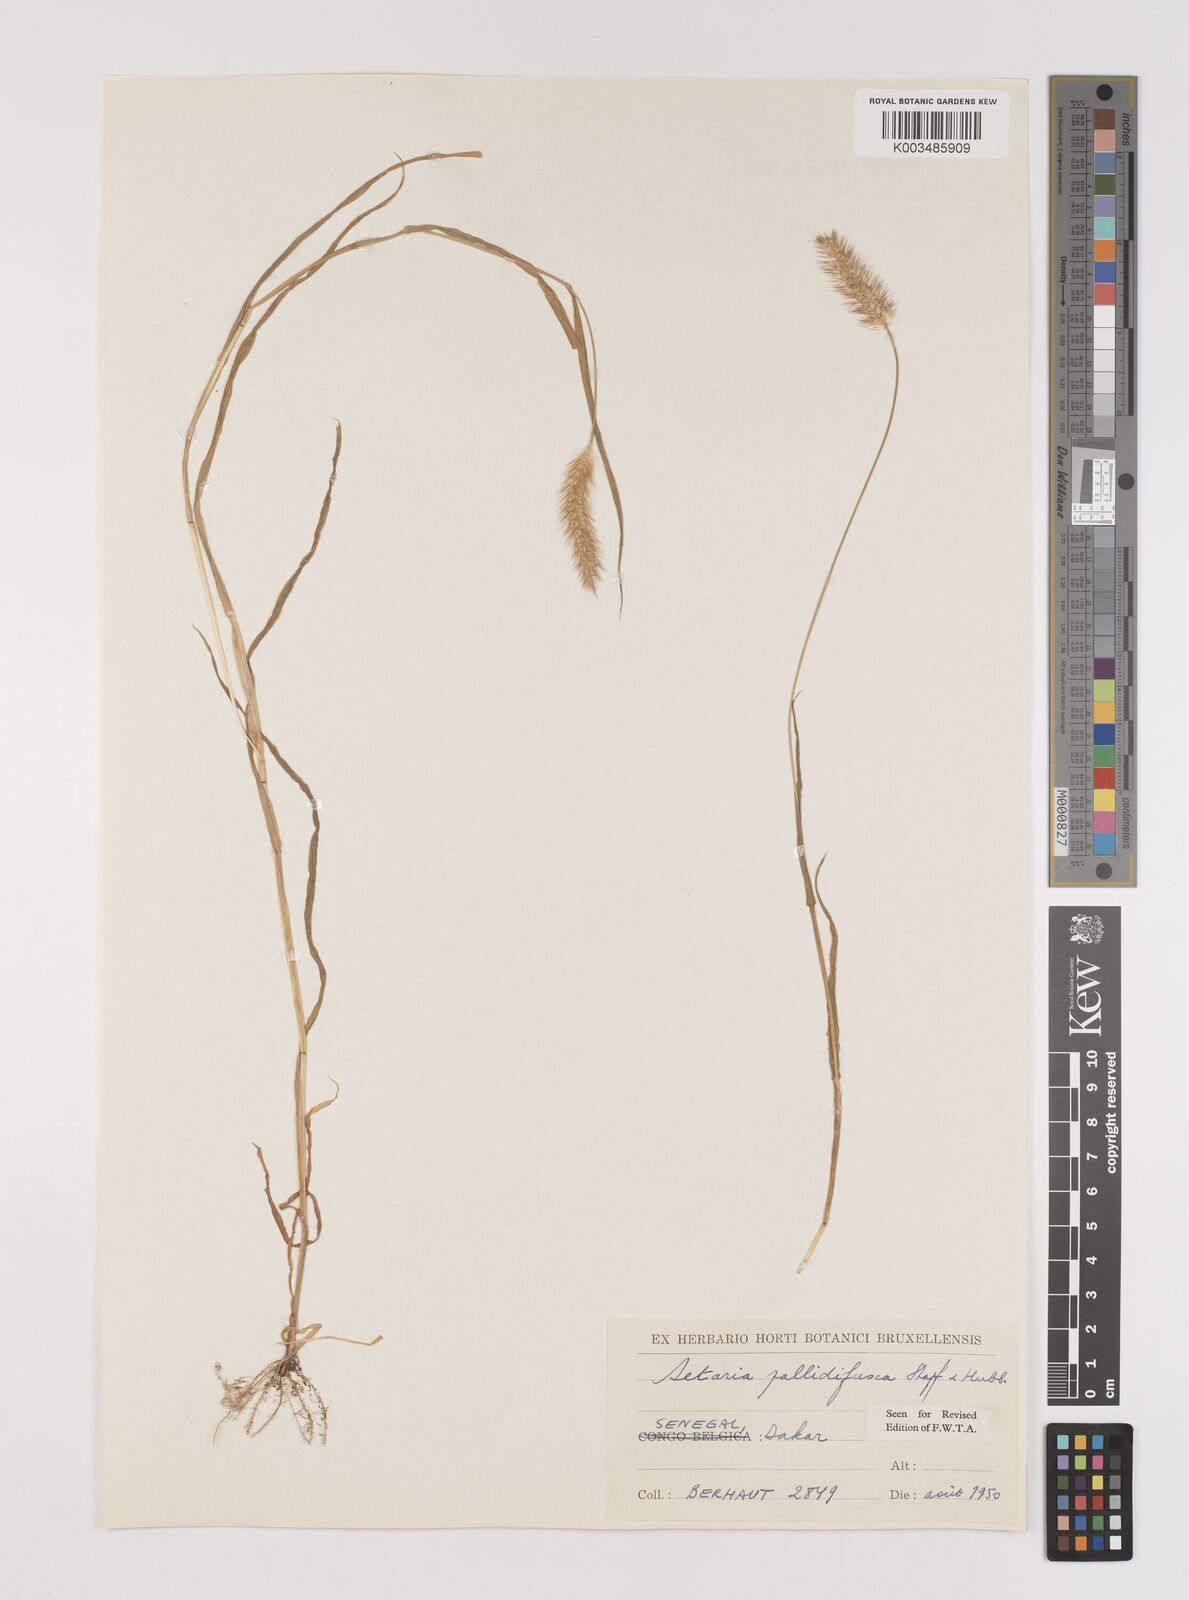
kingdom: Plantae
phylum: Tracheophyta
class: Liliopsida
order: Poales
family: Poaceae
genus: Setaria
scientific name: Setaria pumila
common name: Yellow bristle-grass
